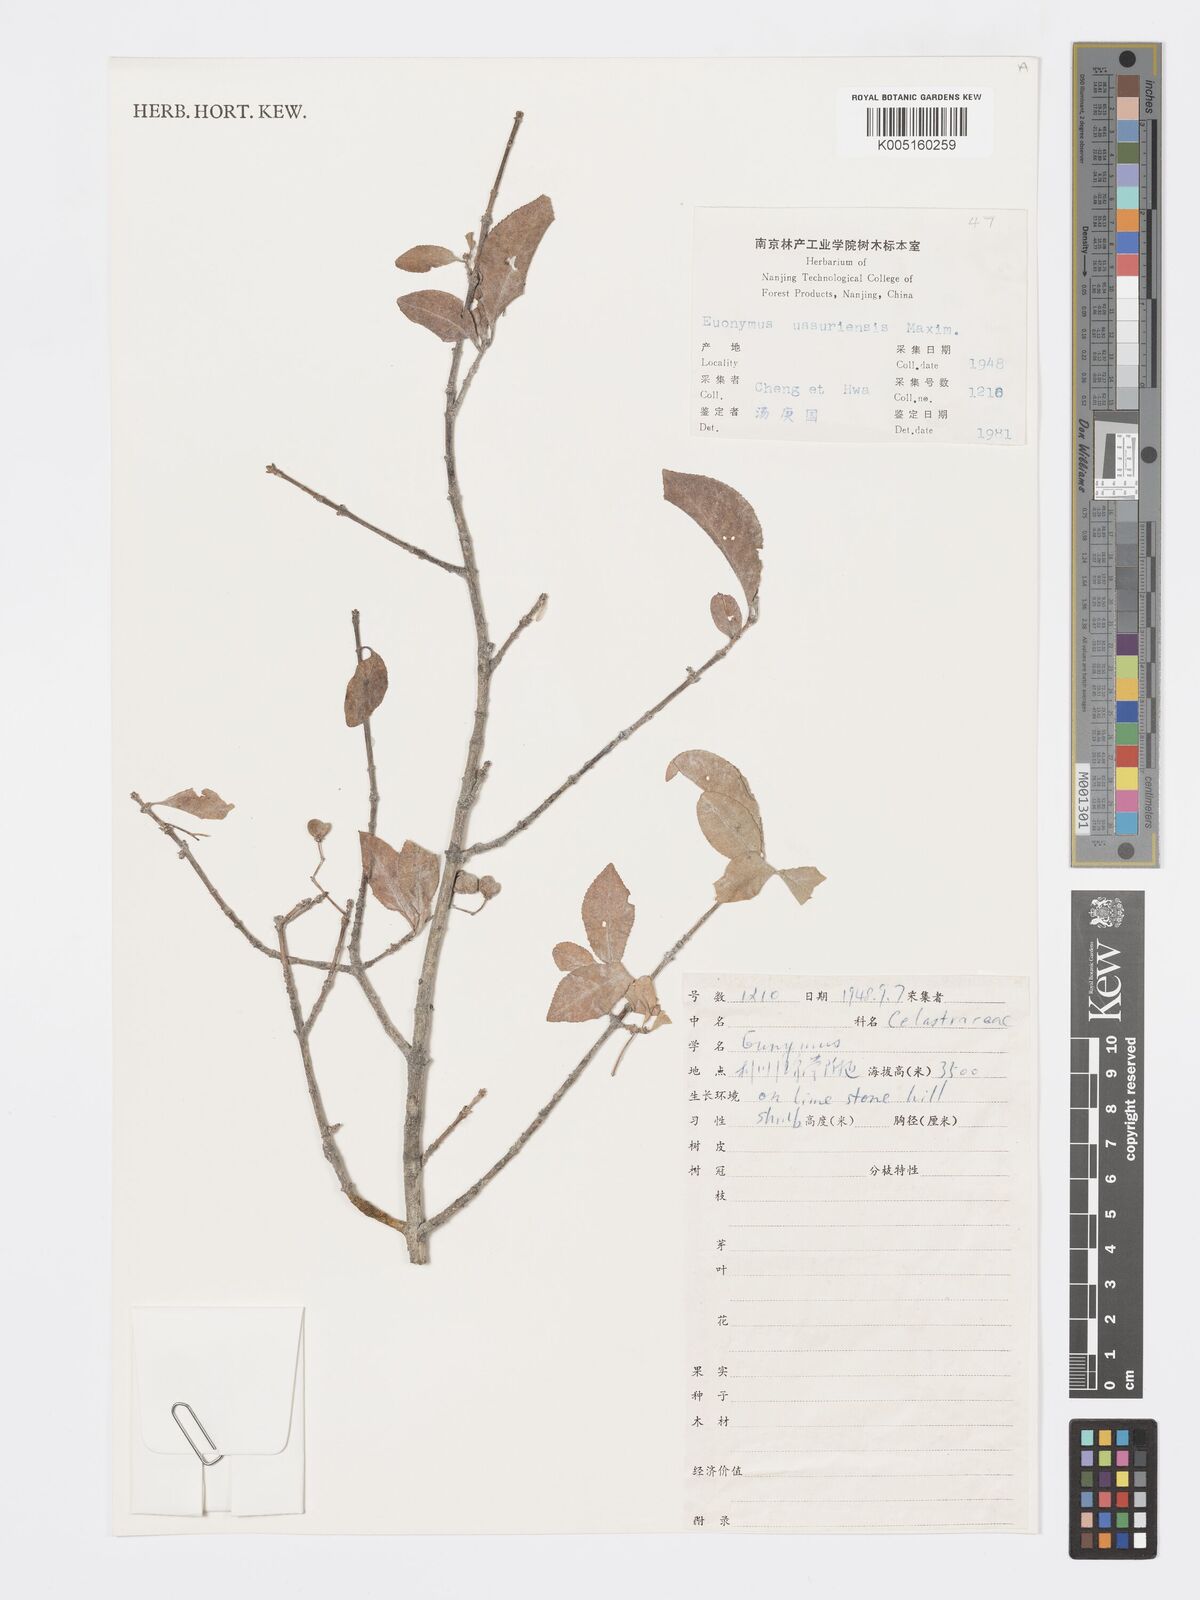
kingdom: Plantae
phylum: Tracheophyta
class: Magnoliopsida
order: Celastrales
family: Celastraceae
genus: Euonymus
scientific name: Euonymus macropterus
